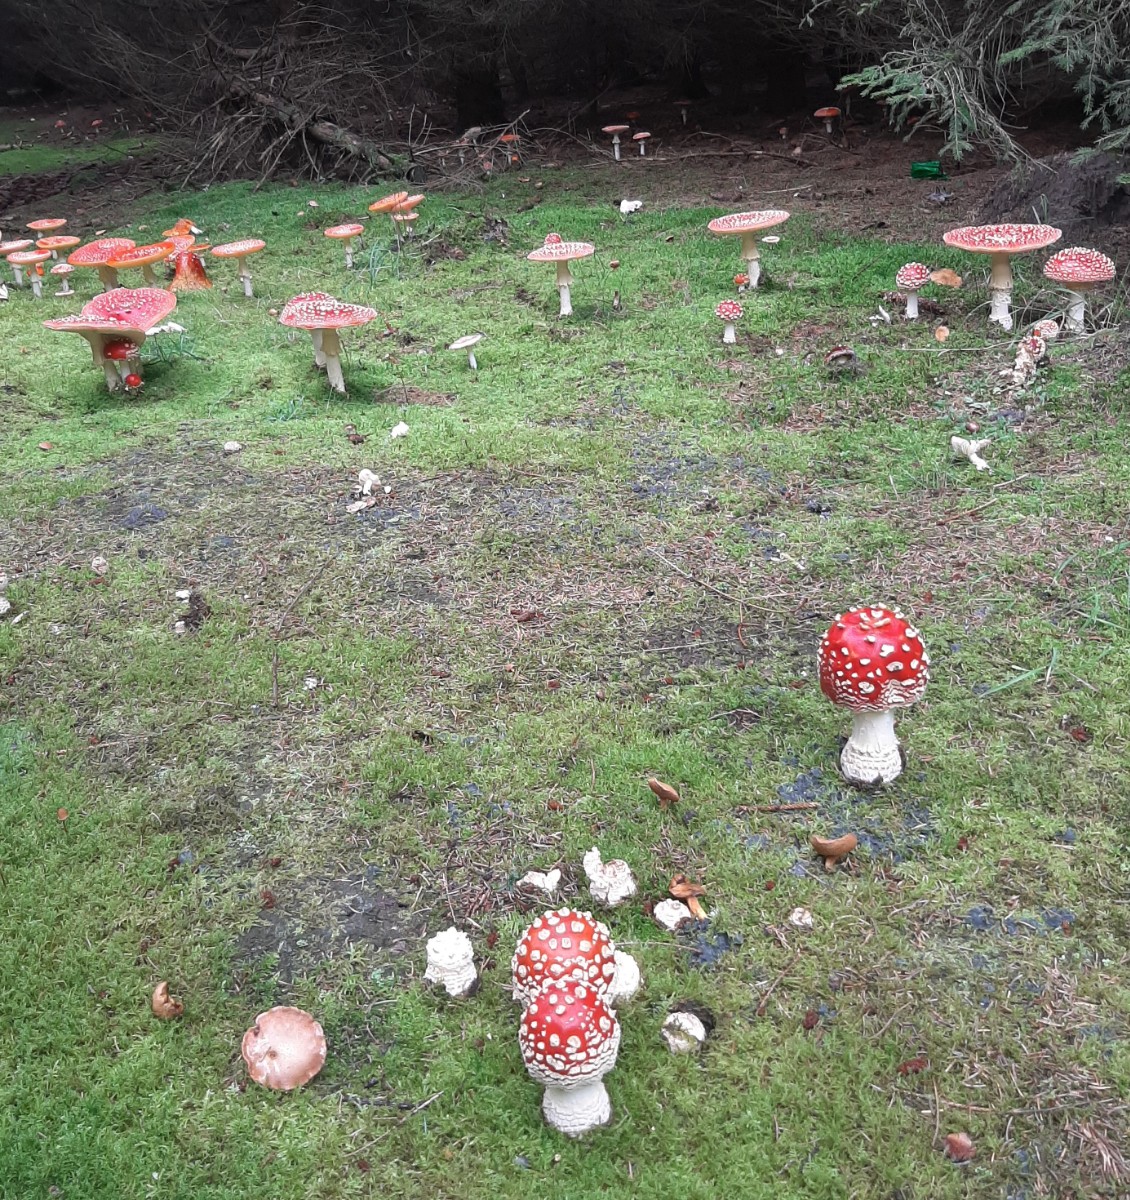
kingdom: Fungi
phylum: Basidiomycota
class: Agaricomycetes
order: Agaricales
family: Amanitaceae
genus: Amanita
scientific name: Amanita muscaria
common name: rød fluesvamp
